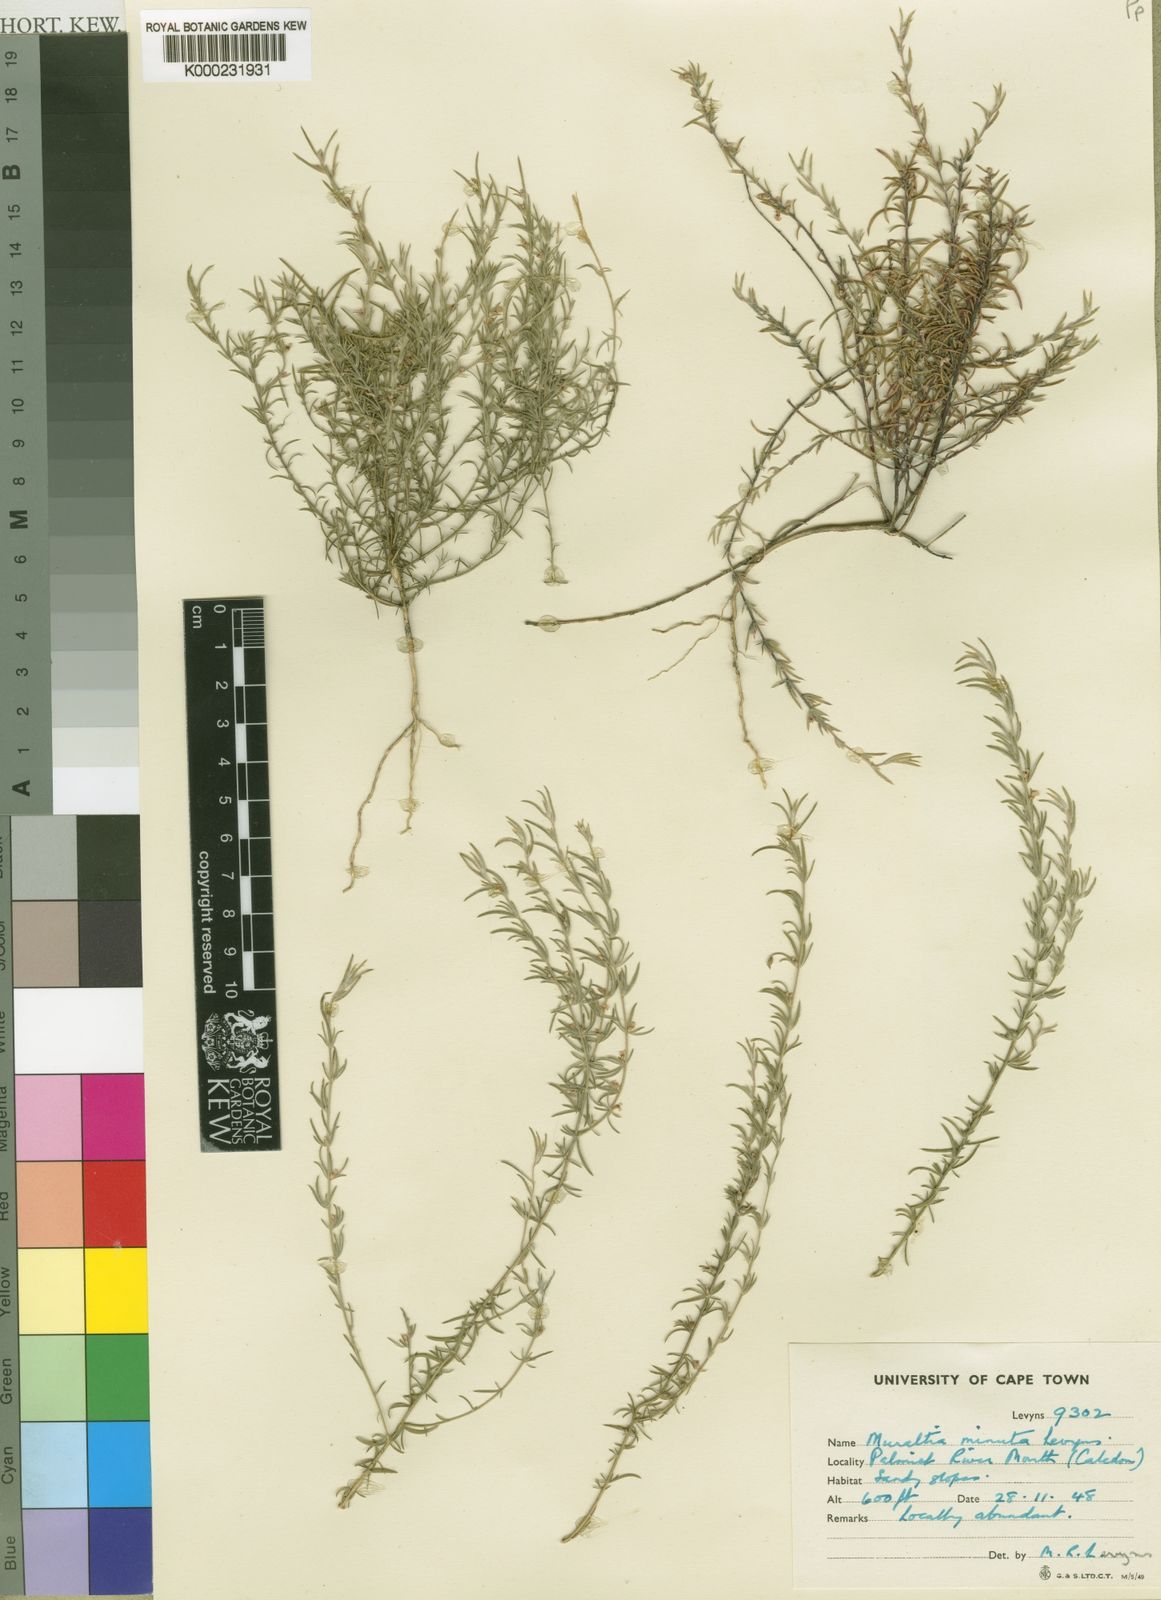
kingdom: Plantae
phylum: Tracheophyta
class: Magnoliopsida
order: Fabales
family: Polygalaceae
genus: Muraltia
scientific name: Muraltia minuta
